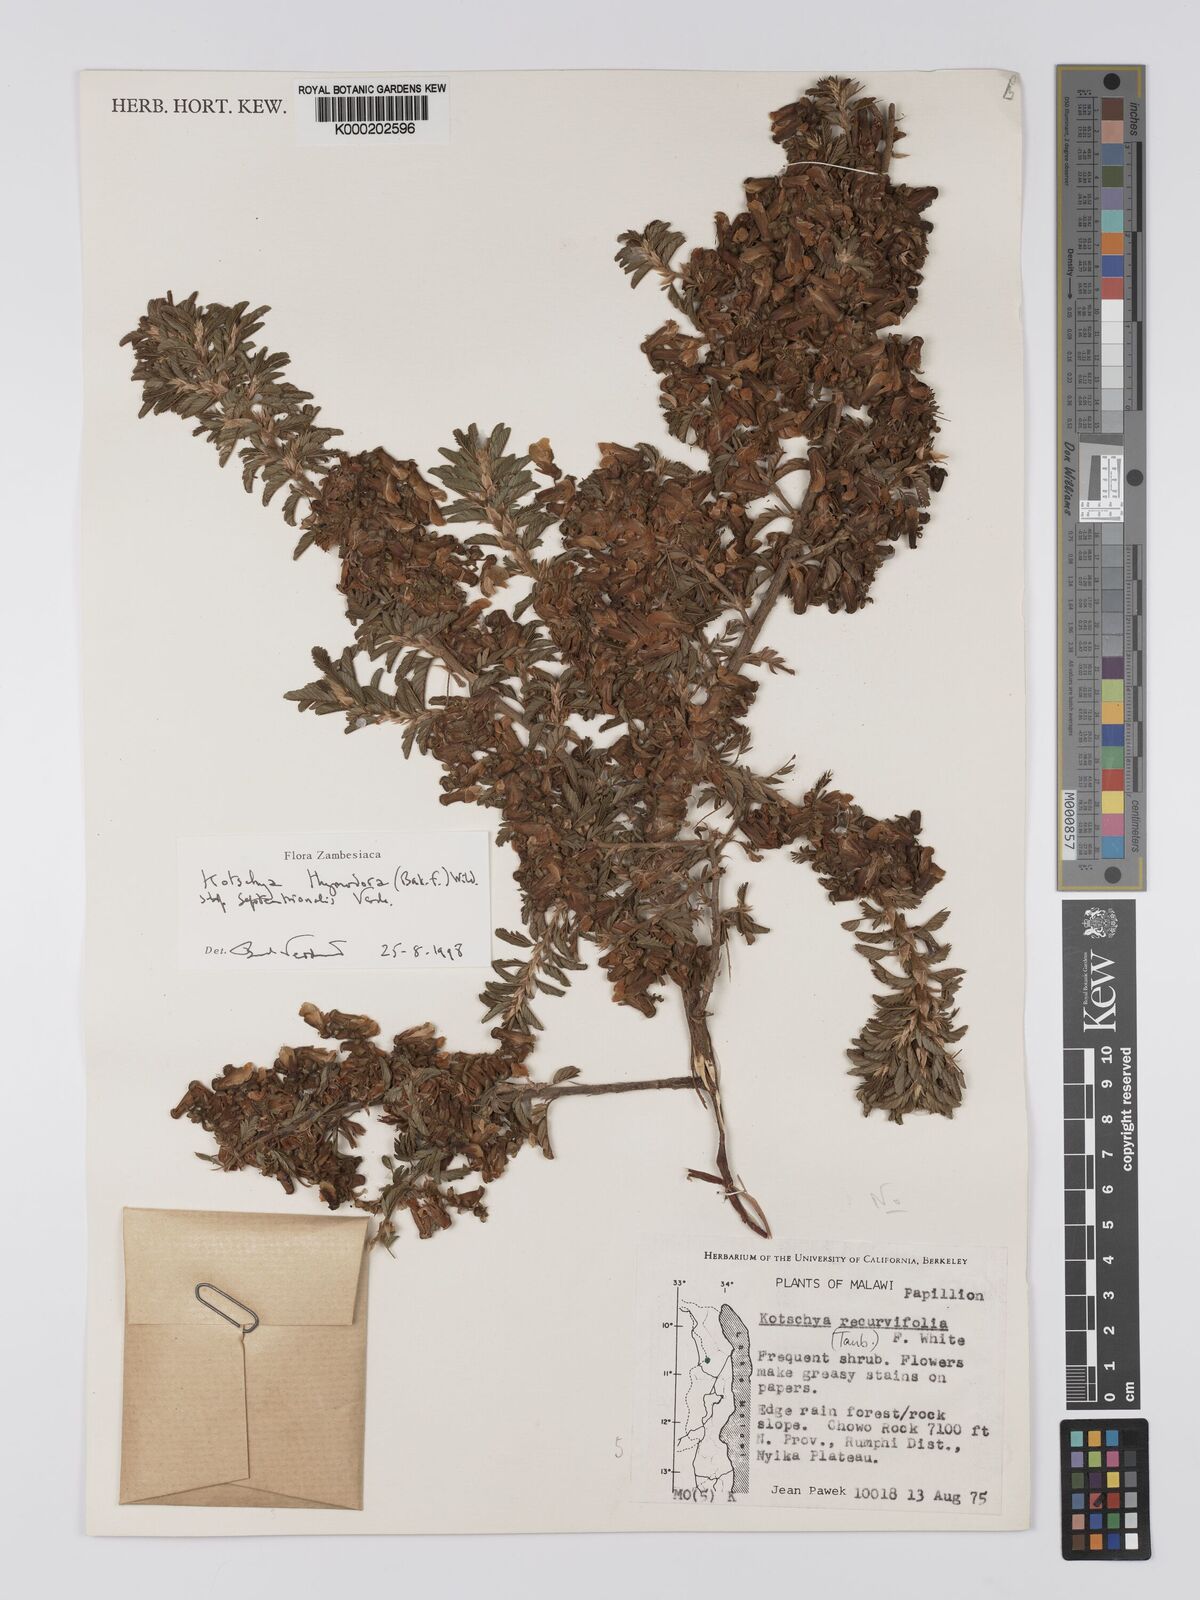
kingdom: Plantae
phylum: Tracheophyta
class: Magnoliopsida
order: Fabales
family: Fabaceae
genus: Kotschya
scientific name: Kotschya thymodora
